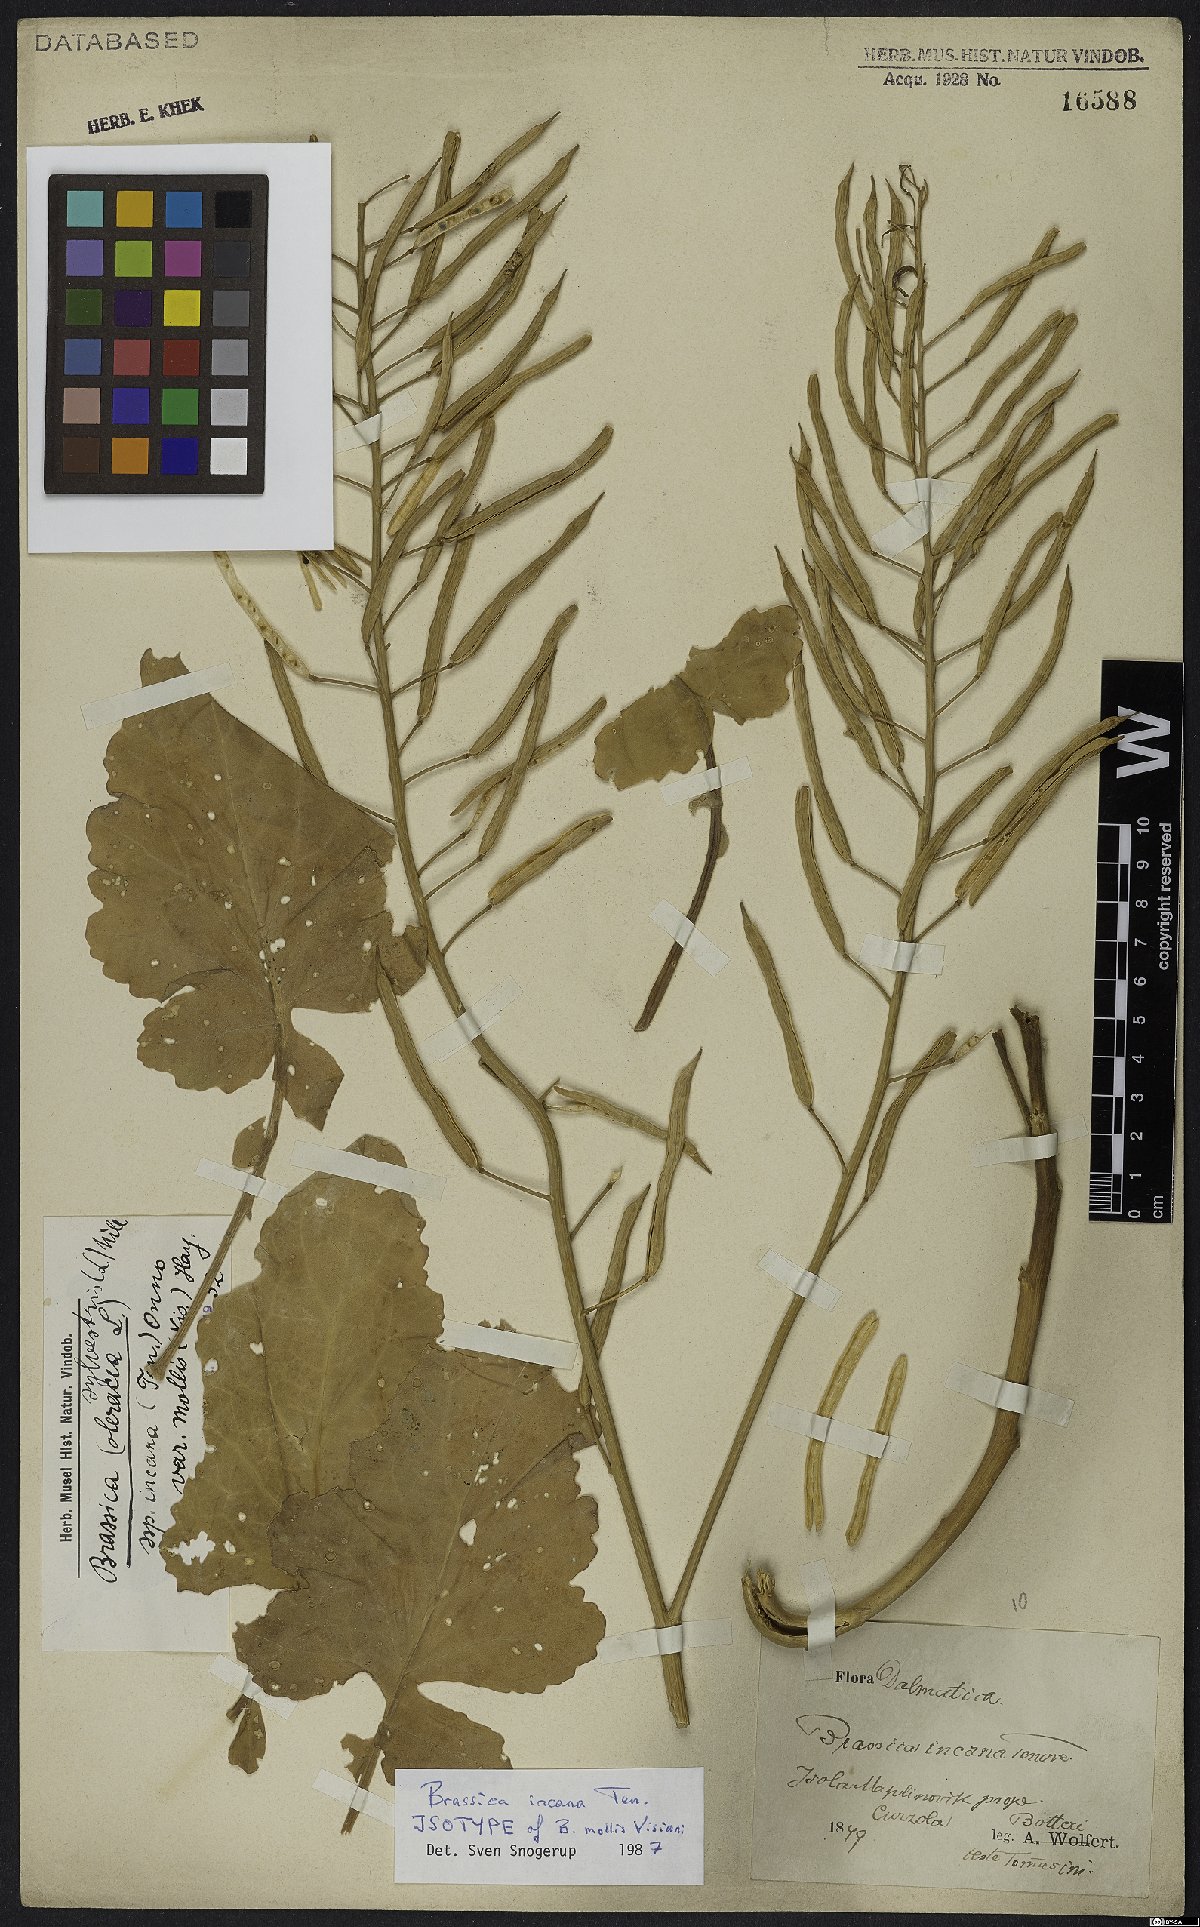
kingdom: Plantae
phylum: Tracheophyta
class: Magnoliopsida
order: Brassicales
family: Brassicaceae
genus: Brassica
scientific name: Brassica incana
